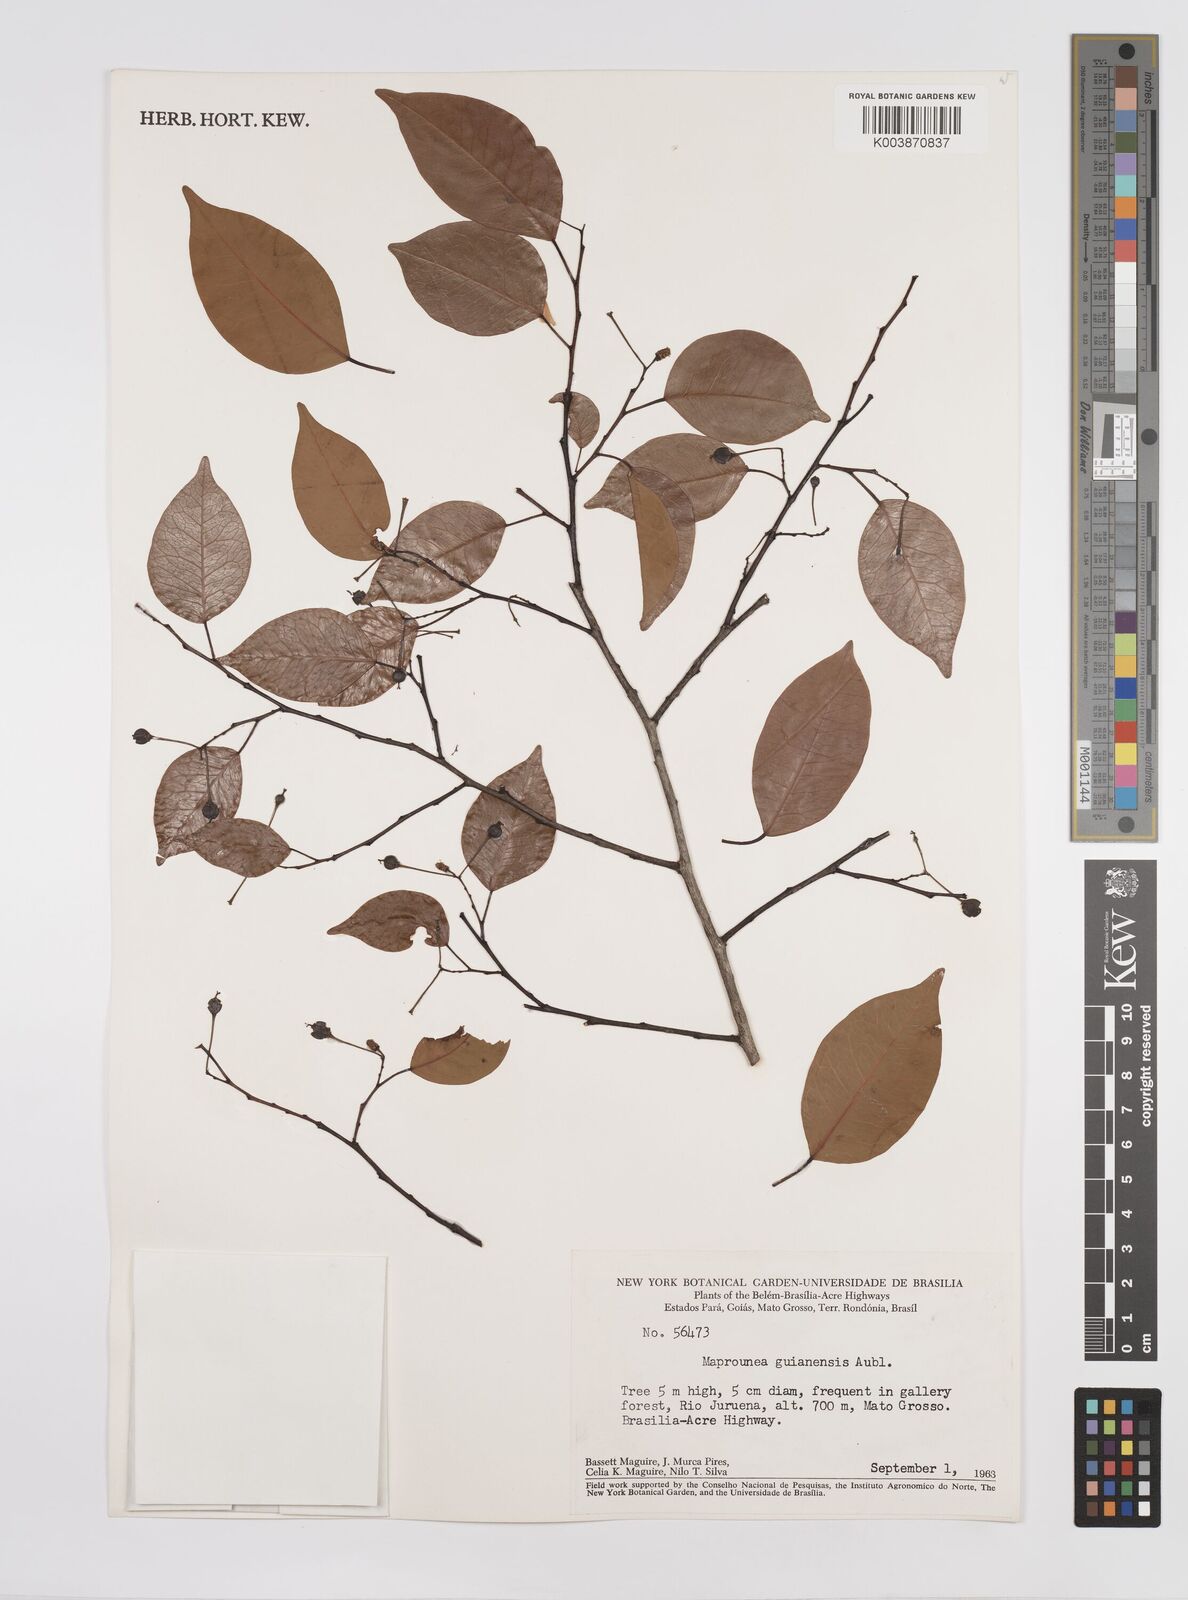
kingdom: Plantae
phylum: Tracheophyta
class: Magnoliopsida
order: Malpighiales
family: Euphorbiaceae
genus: Maprounea
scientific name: Maprounea guianensis
